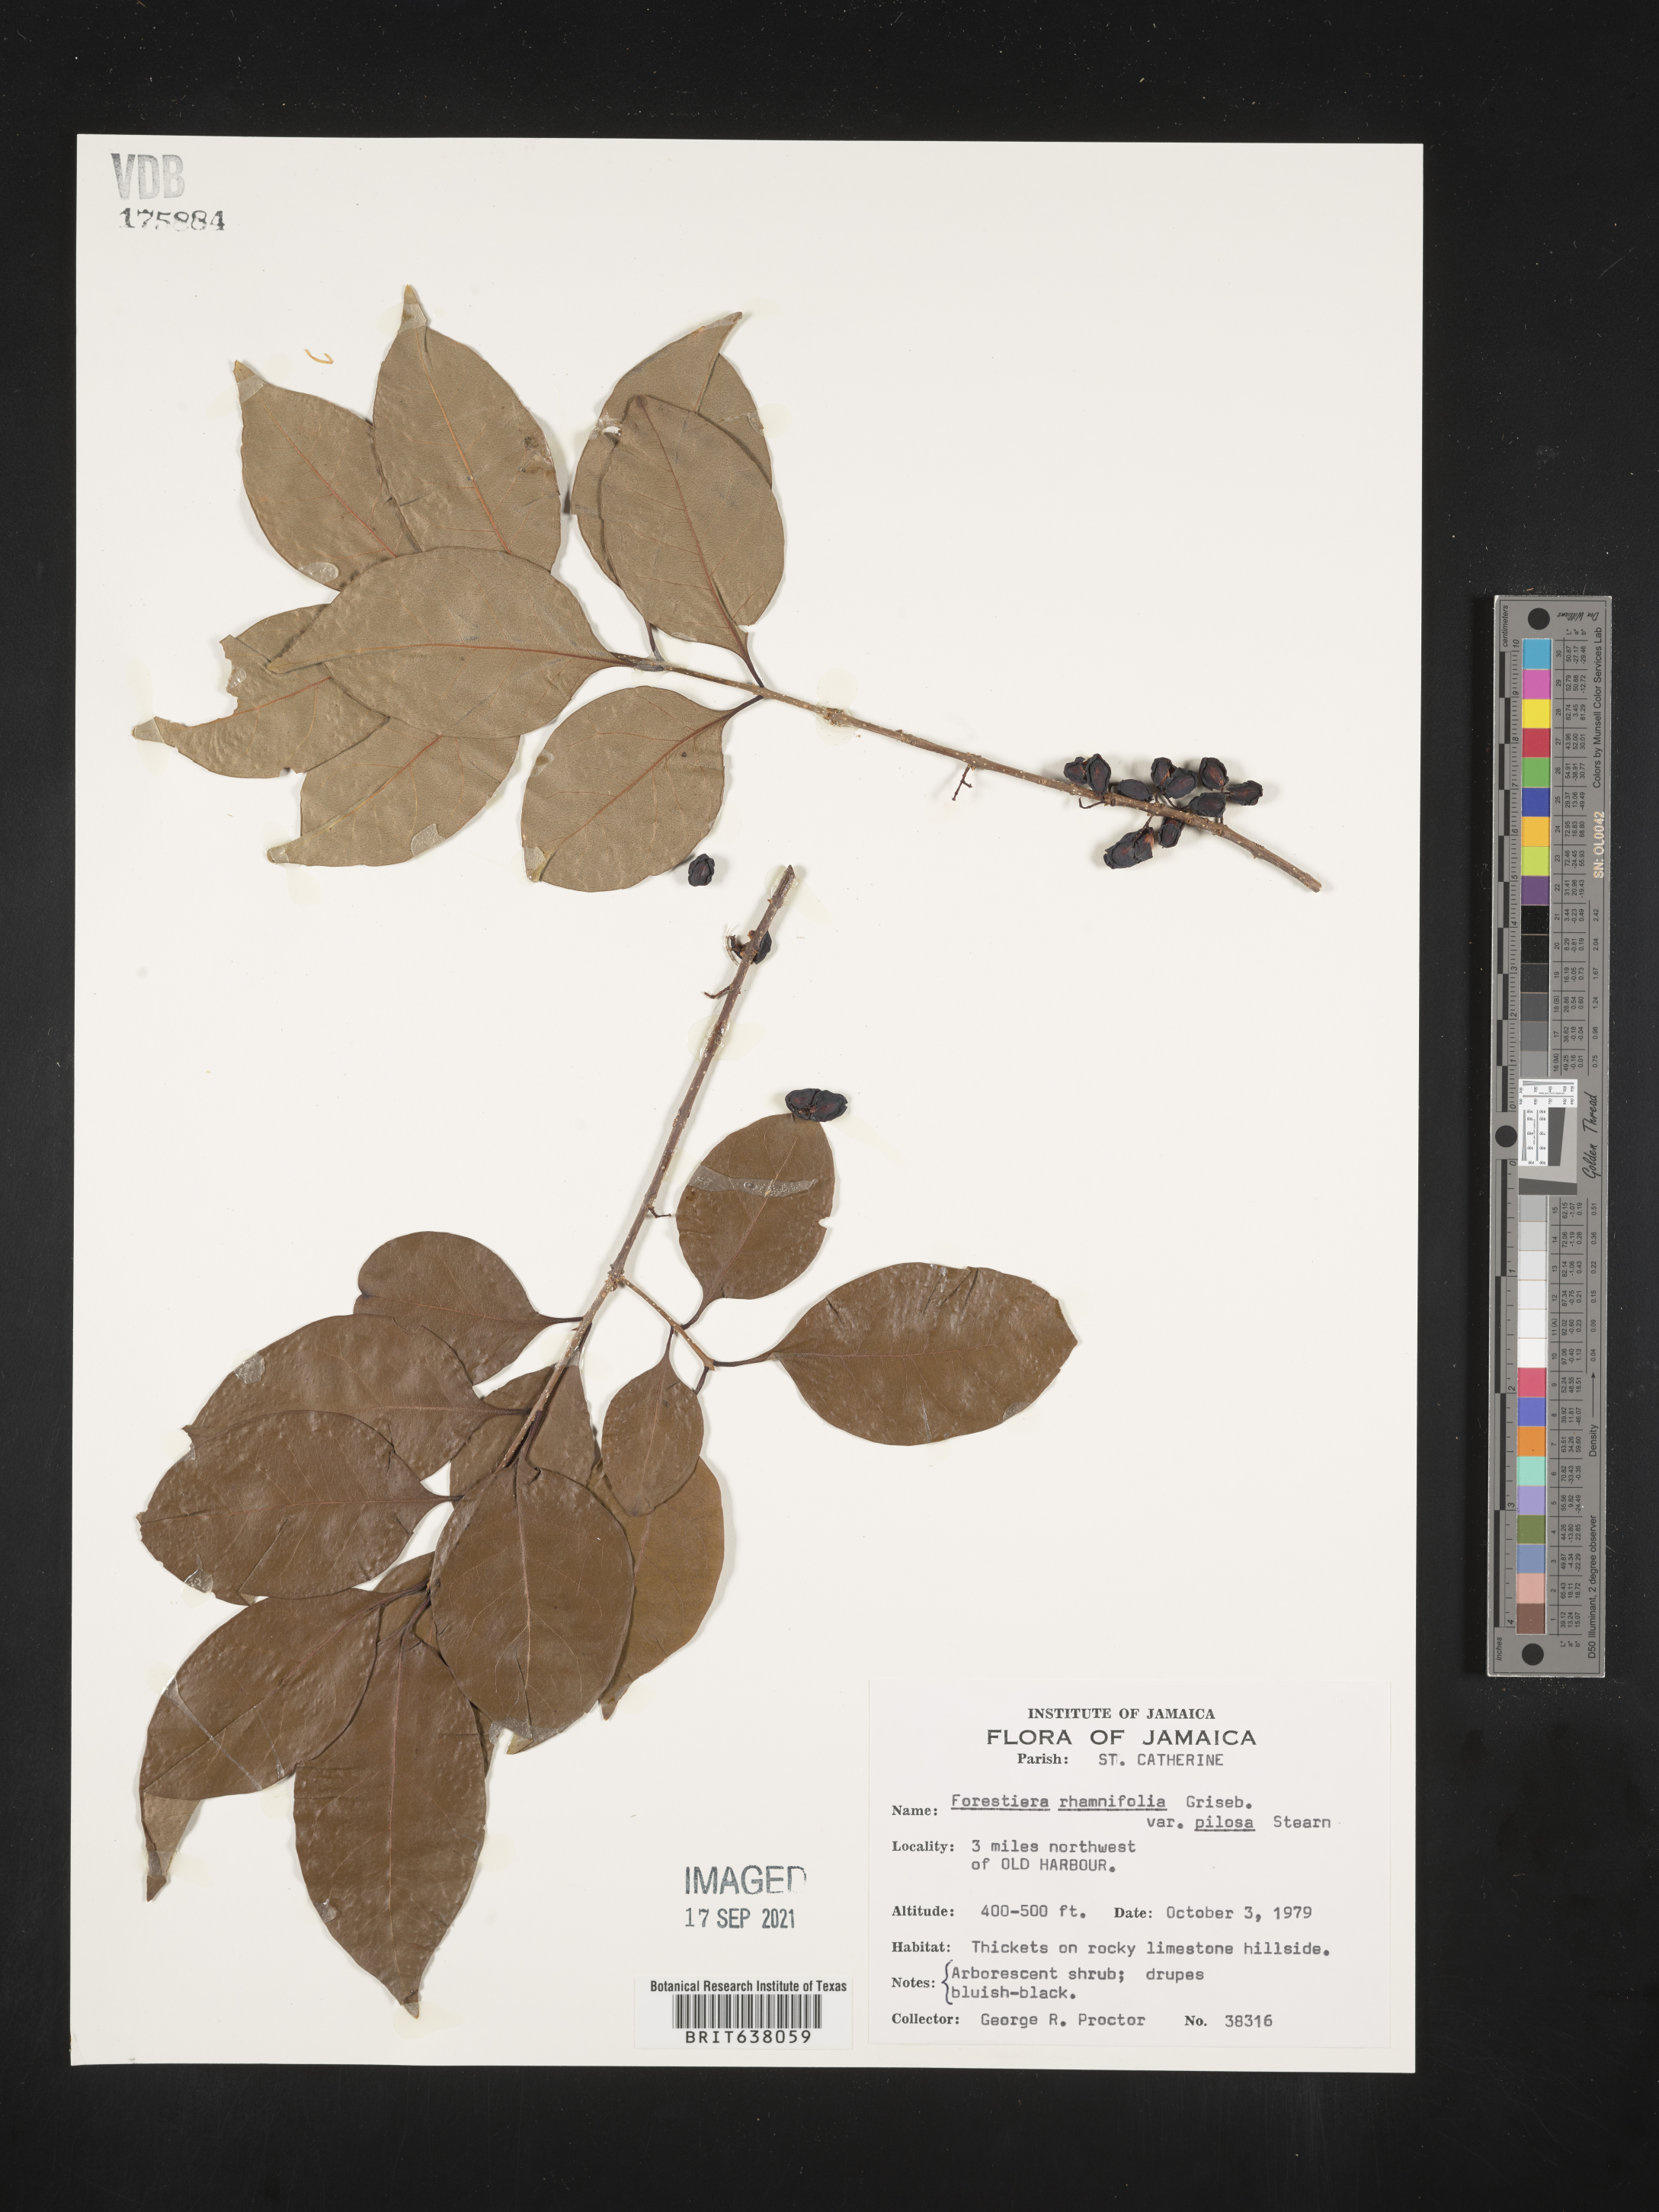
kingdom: Plantae
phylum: Tracheophyta
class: Magnoliopsida
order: Lamiales
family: Oleaceae
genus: Forestiera
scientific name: Forestiera
